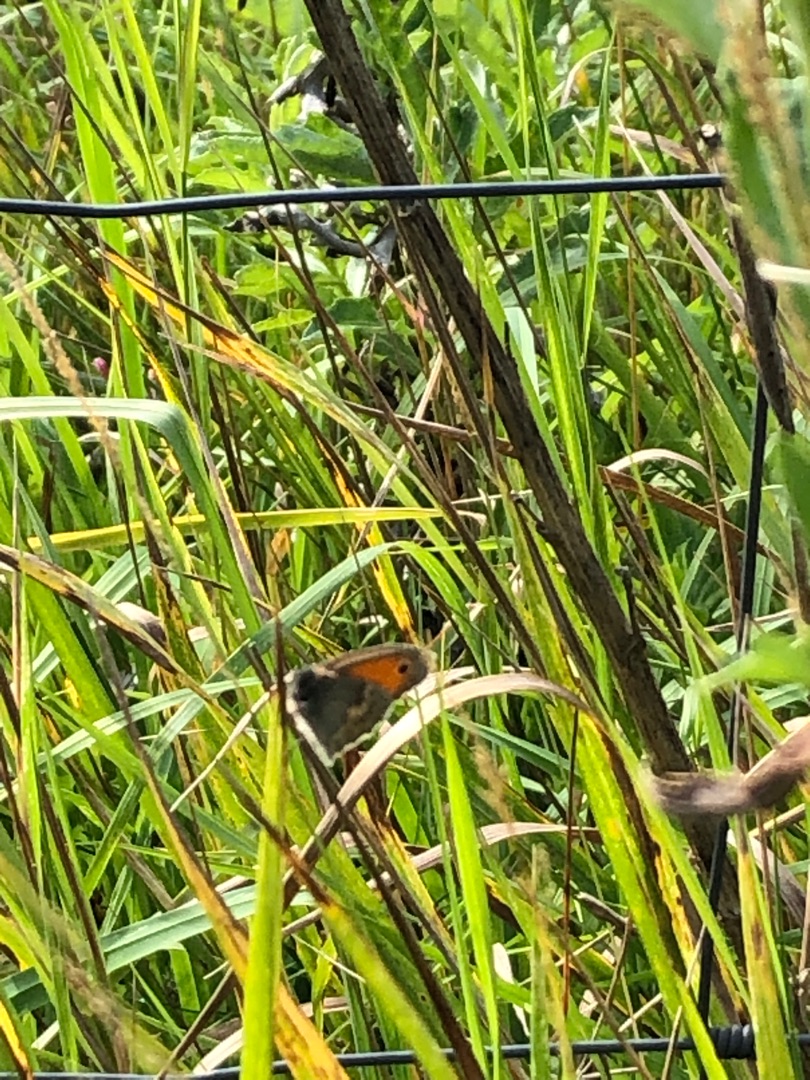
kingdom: Animalia
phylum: Arthropoda
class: Insecta
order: Lepidoptera
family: Nymphalidae
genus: Coenonympha
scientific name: Coenonympha pamphilus
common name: Okkergul randøje
